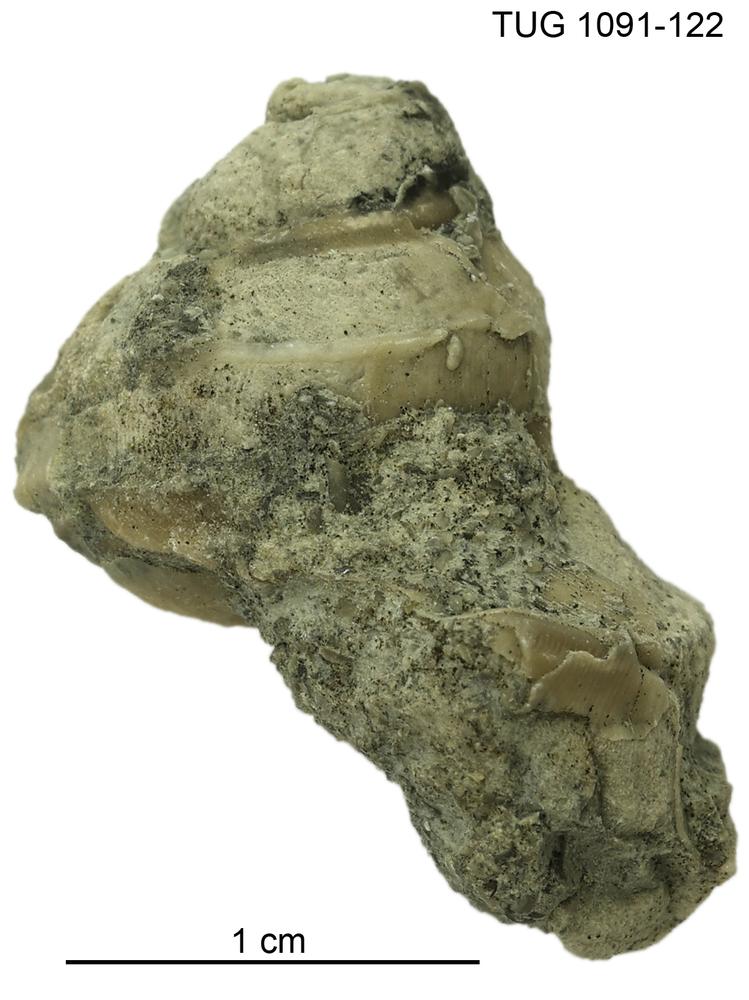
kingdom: Animalia
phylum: Mollusca
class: Gastropoda
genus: Crenilunula
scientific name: Crenilunula
